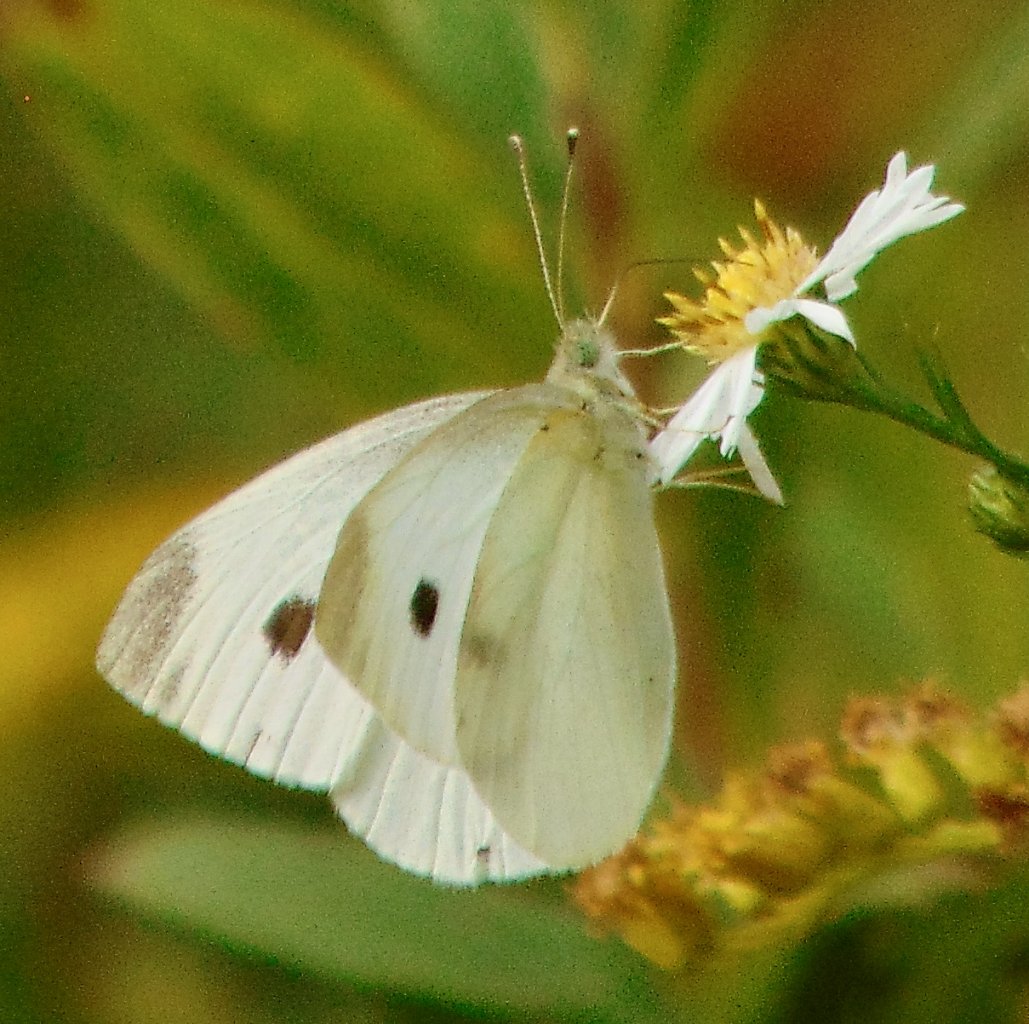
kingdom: Animalia
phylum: Arthropoda
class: Insecta
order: Lepidoptera
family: Pieridae
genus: Pieris
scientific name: Pieris rapae
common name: Cabbage White
